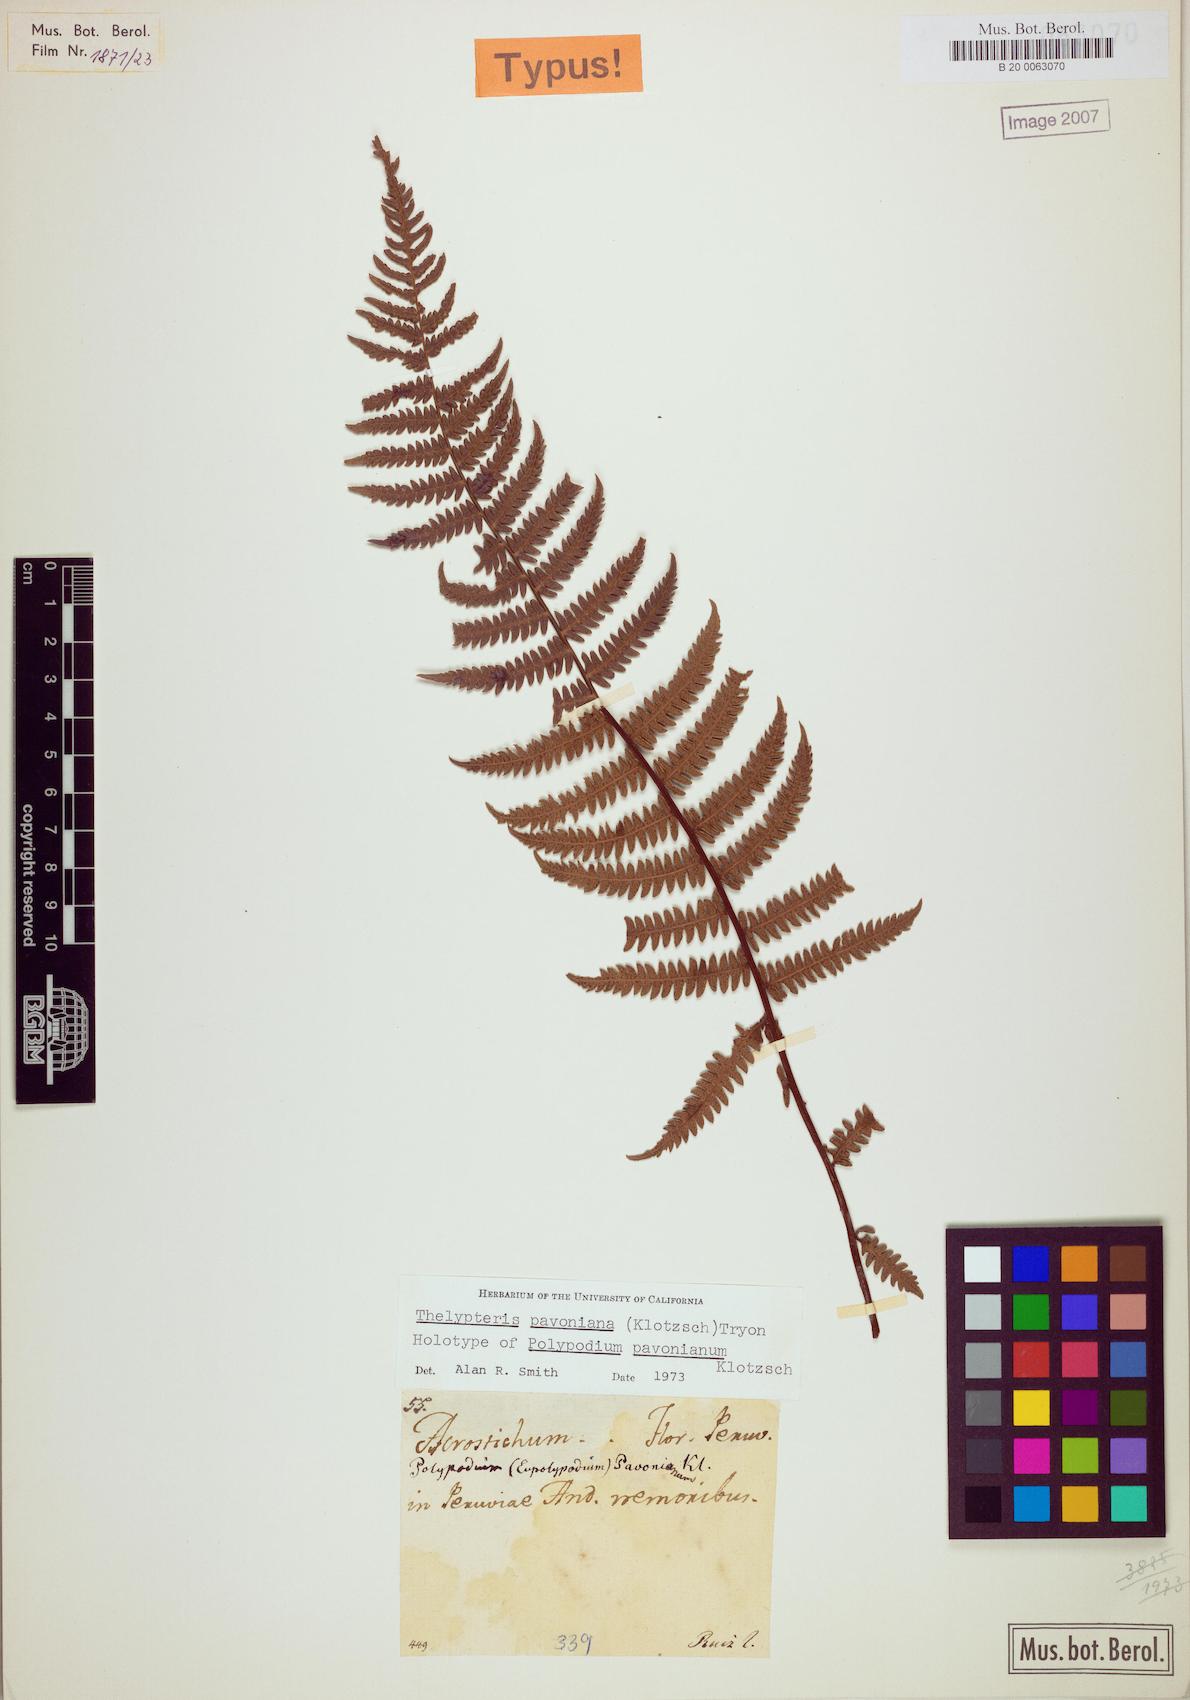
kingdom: Plantae
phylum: Tracheophyta
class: Polypodiopsida
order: Polypodiales
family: Thelypteridaceae
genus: Amauropelta
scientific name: Amauropelta pavoniana
